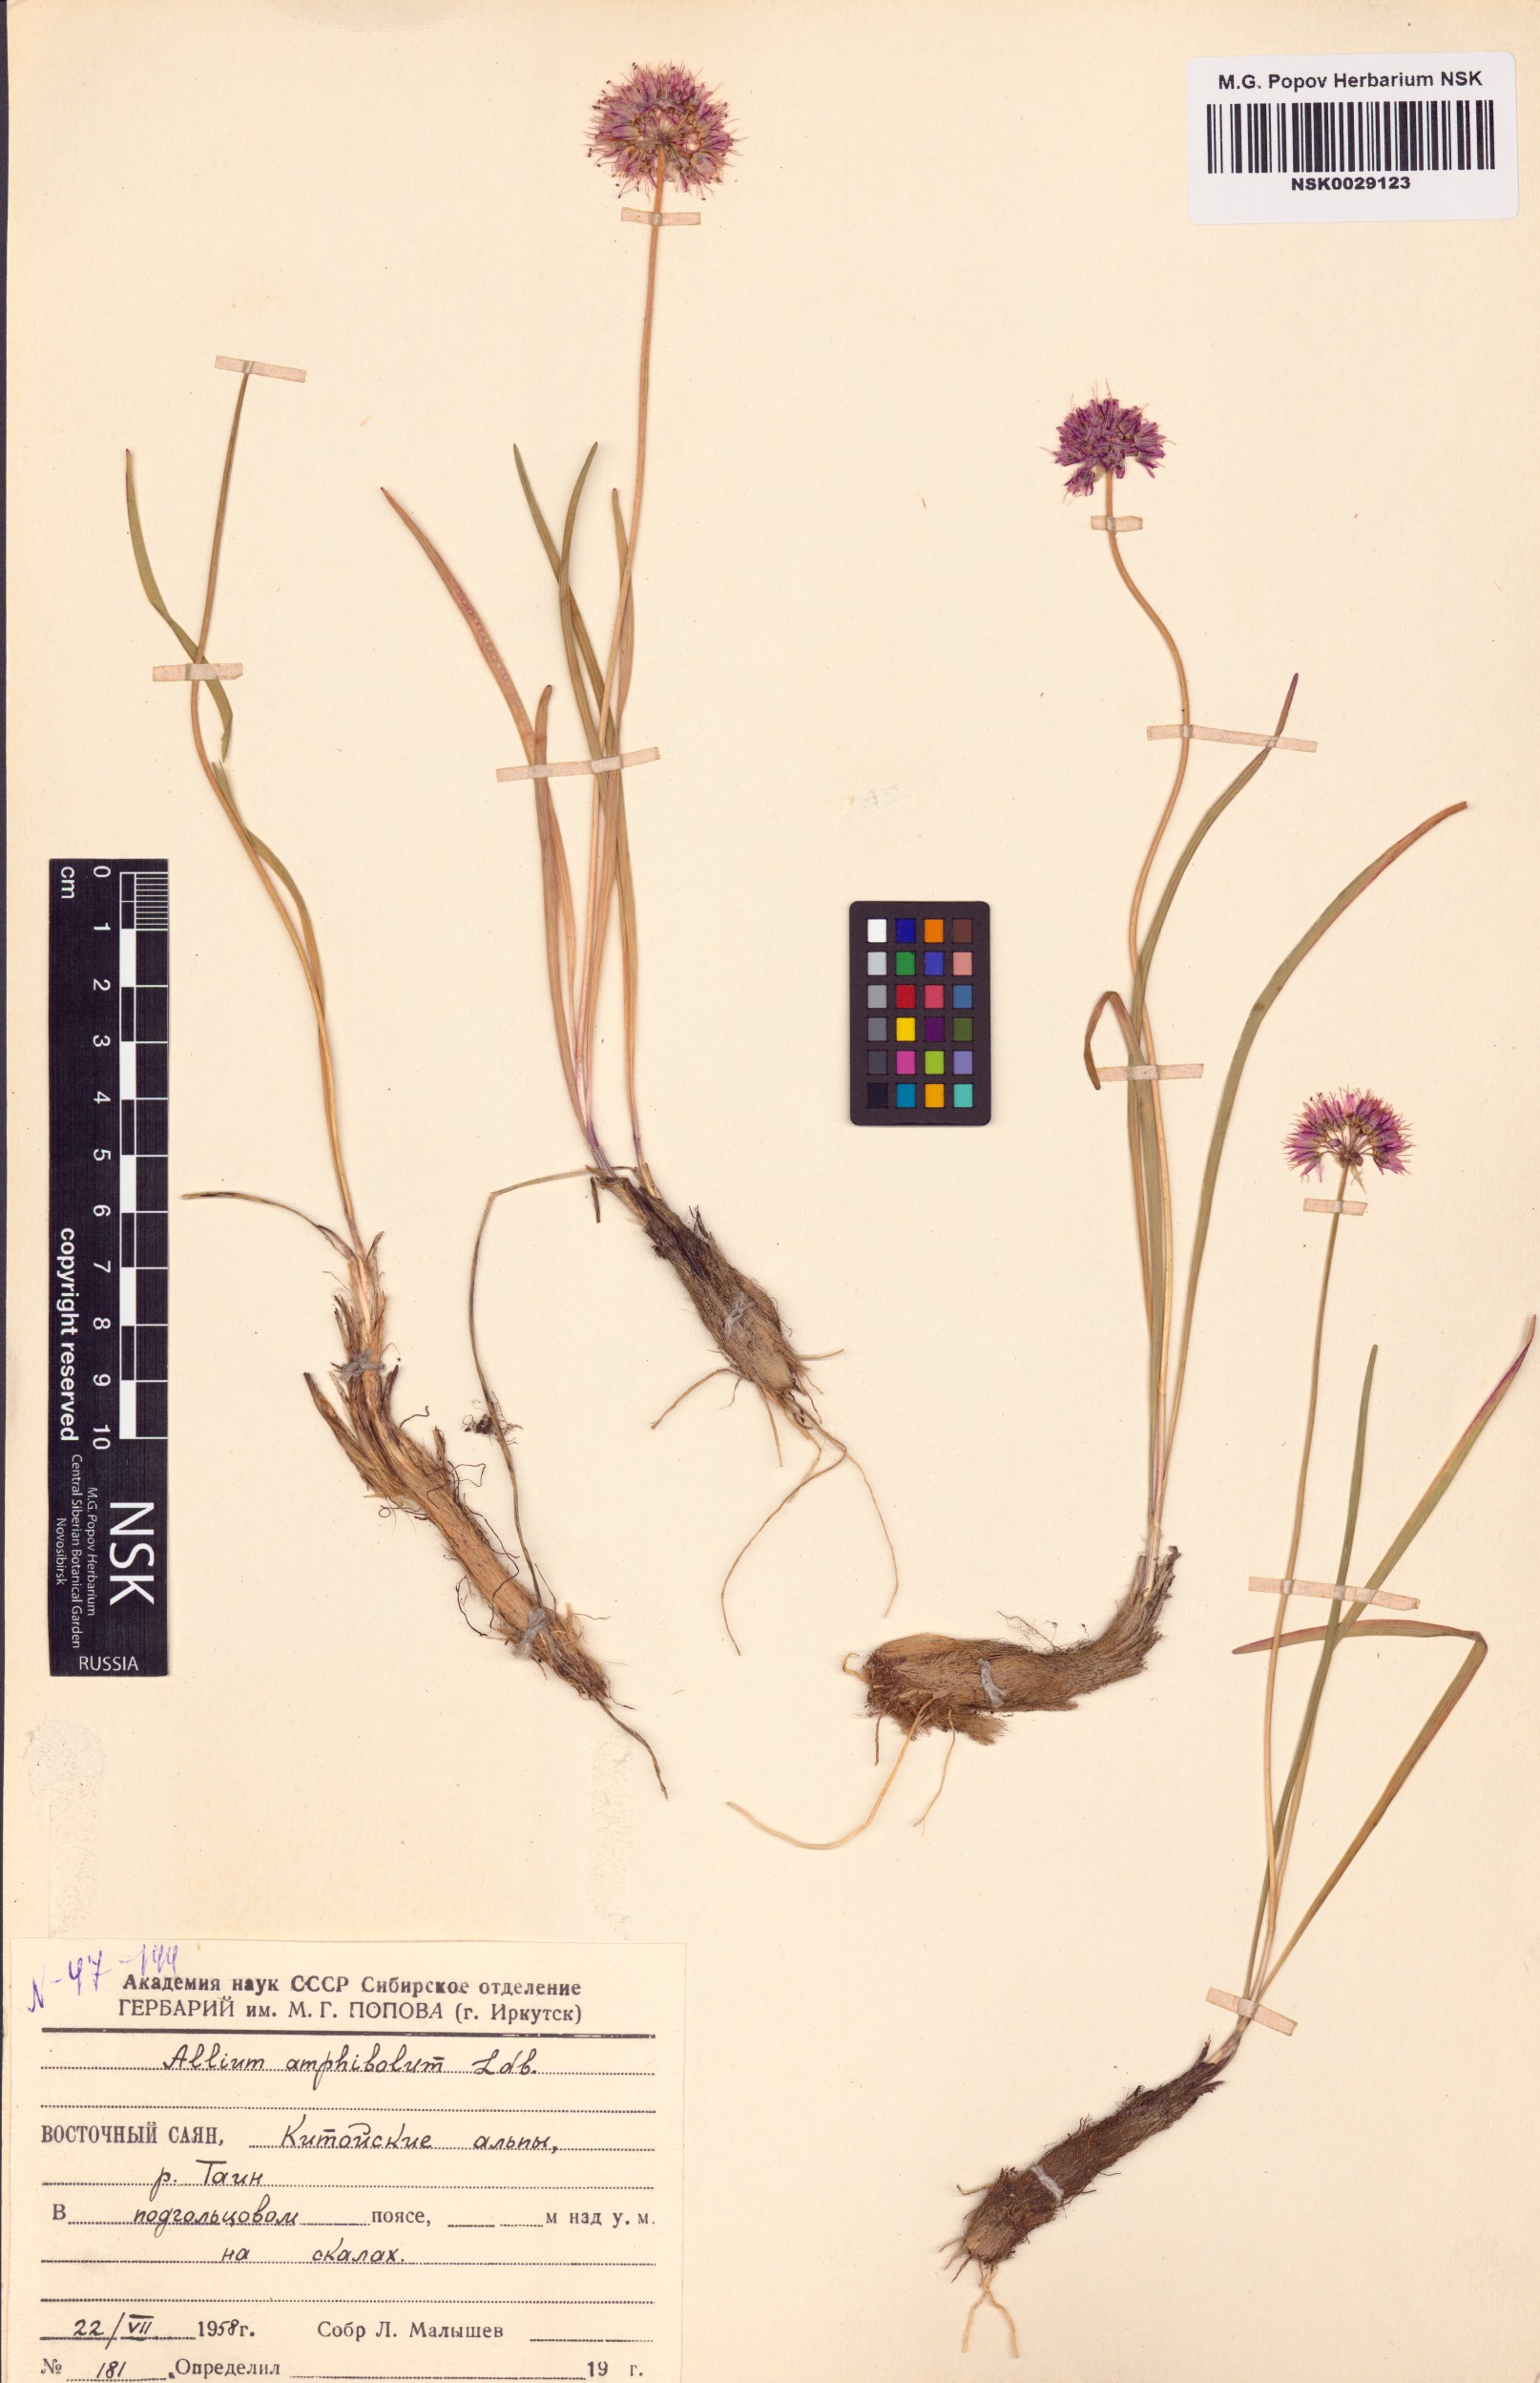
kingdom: Plantae
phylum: Tracheophyta
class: Liliopsida
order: Asparagales
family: Amaryllidaceae
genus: Allium
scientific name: Allium amphibolum
